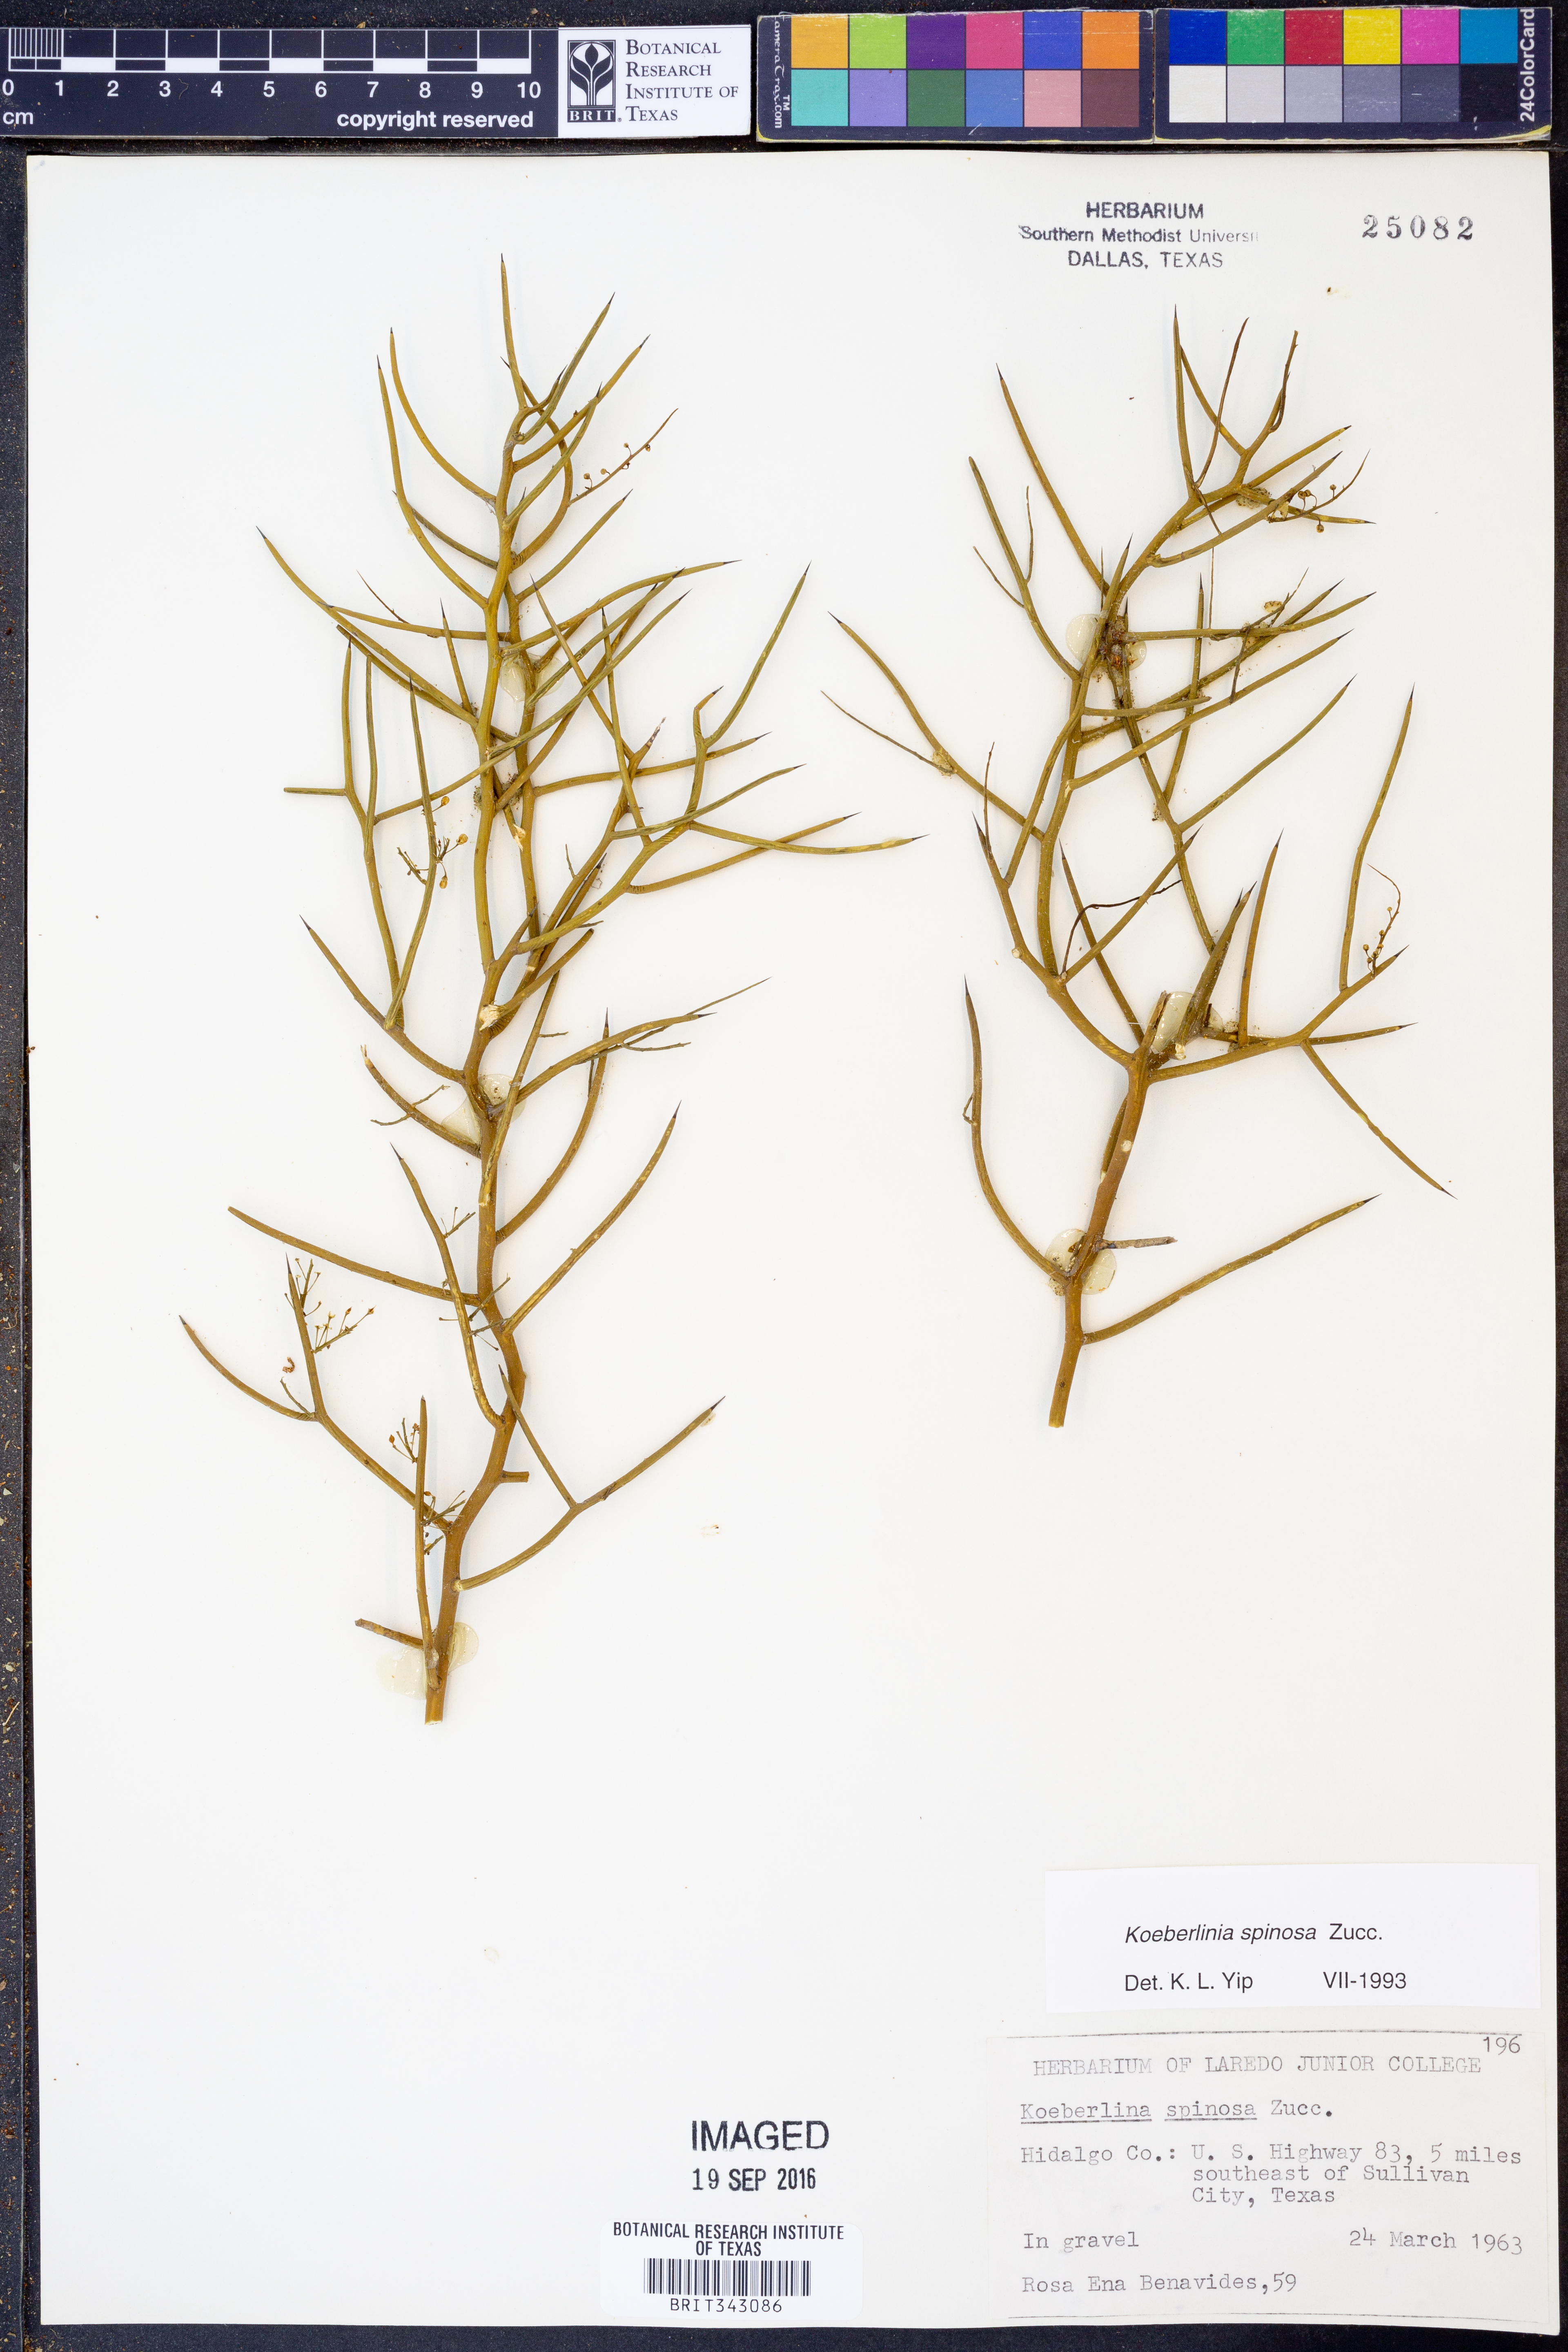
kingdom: Plantae
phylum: Tracheophyta
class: Magnoliopsida
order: Brassicales
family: Koeberliniaceae
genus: Koeberlinia
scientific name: Koeberlinia spinosa
